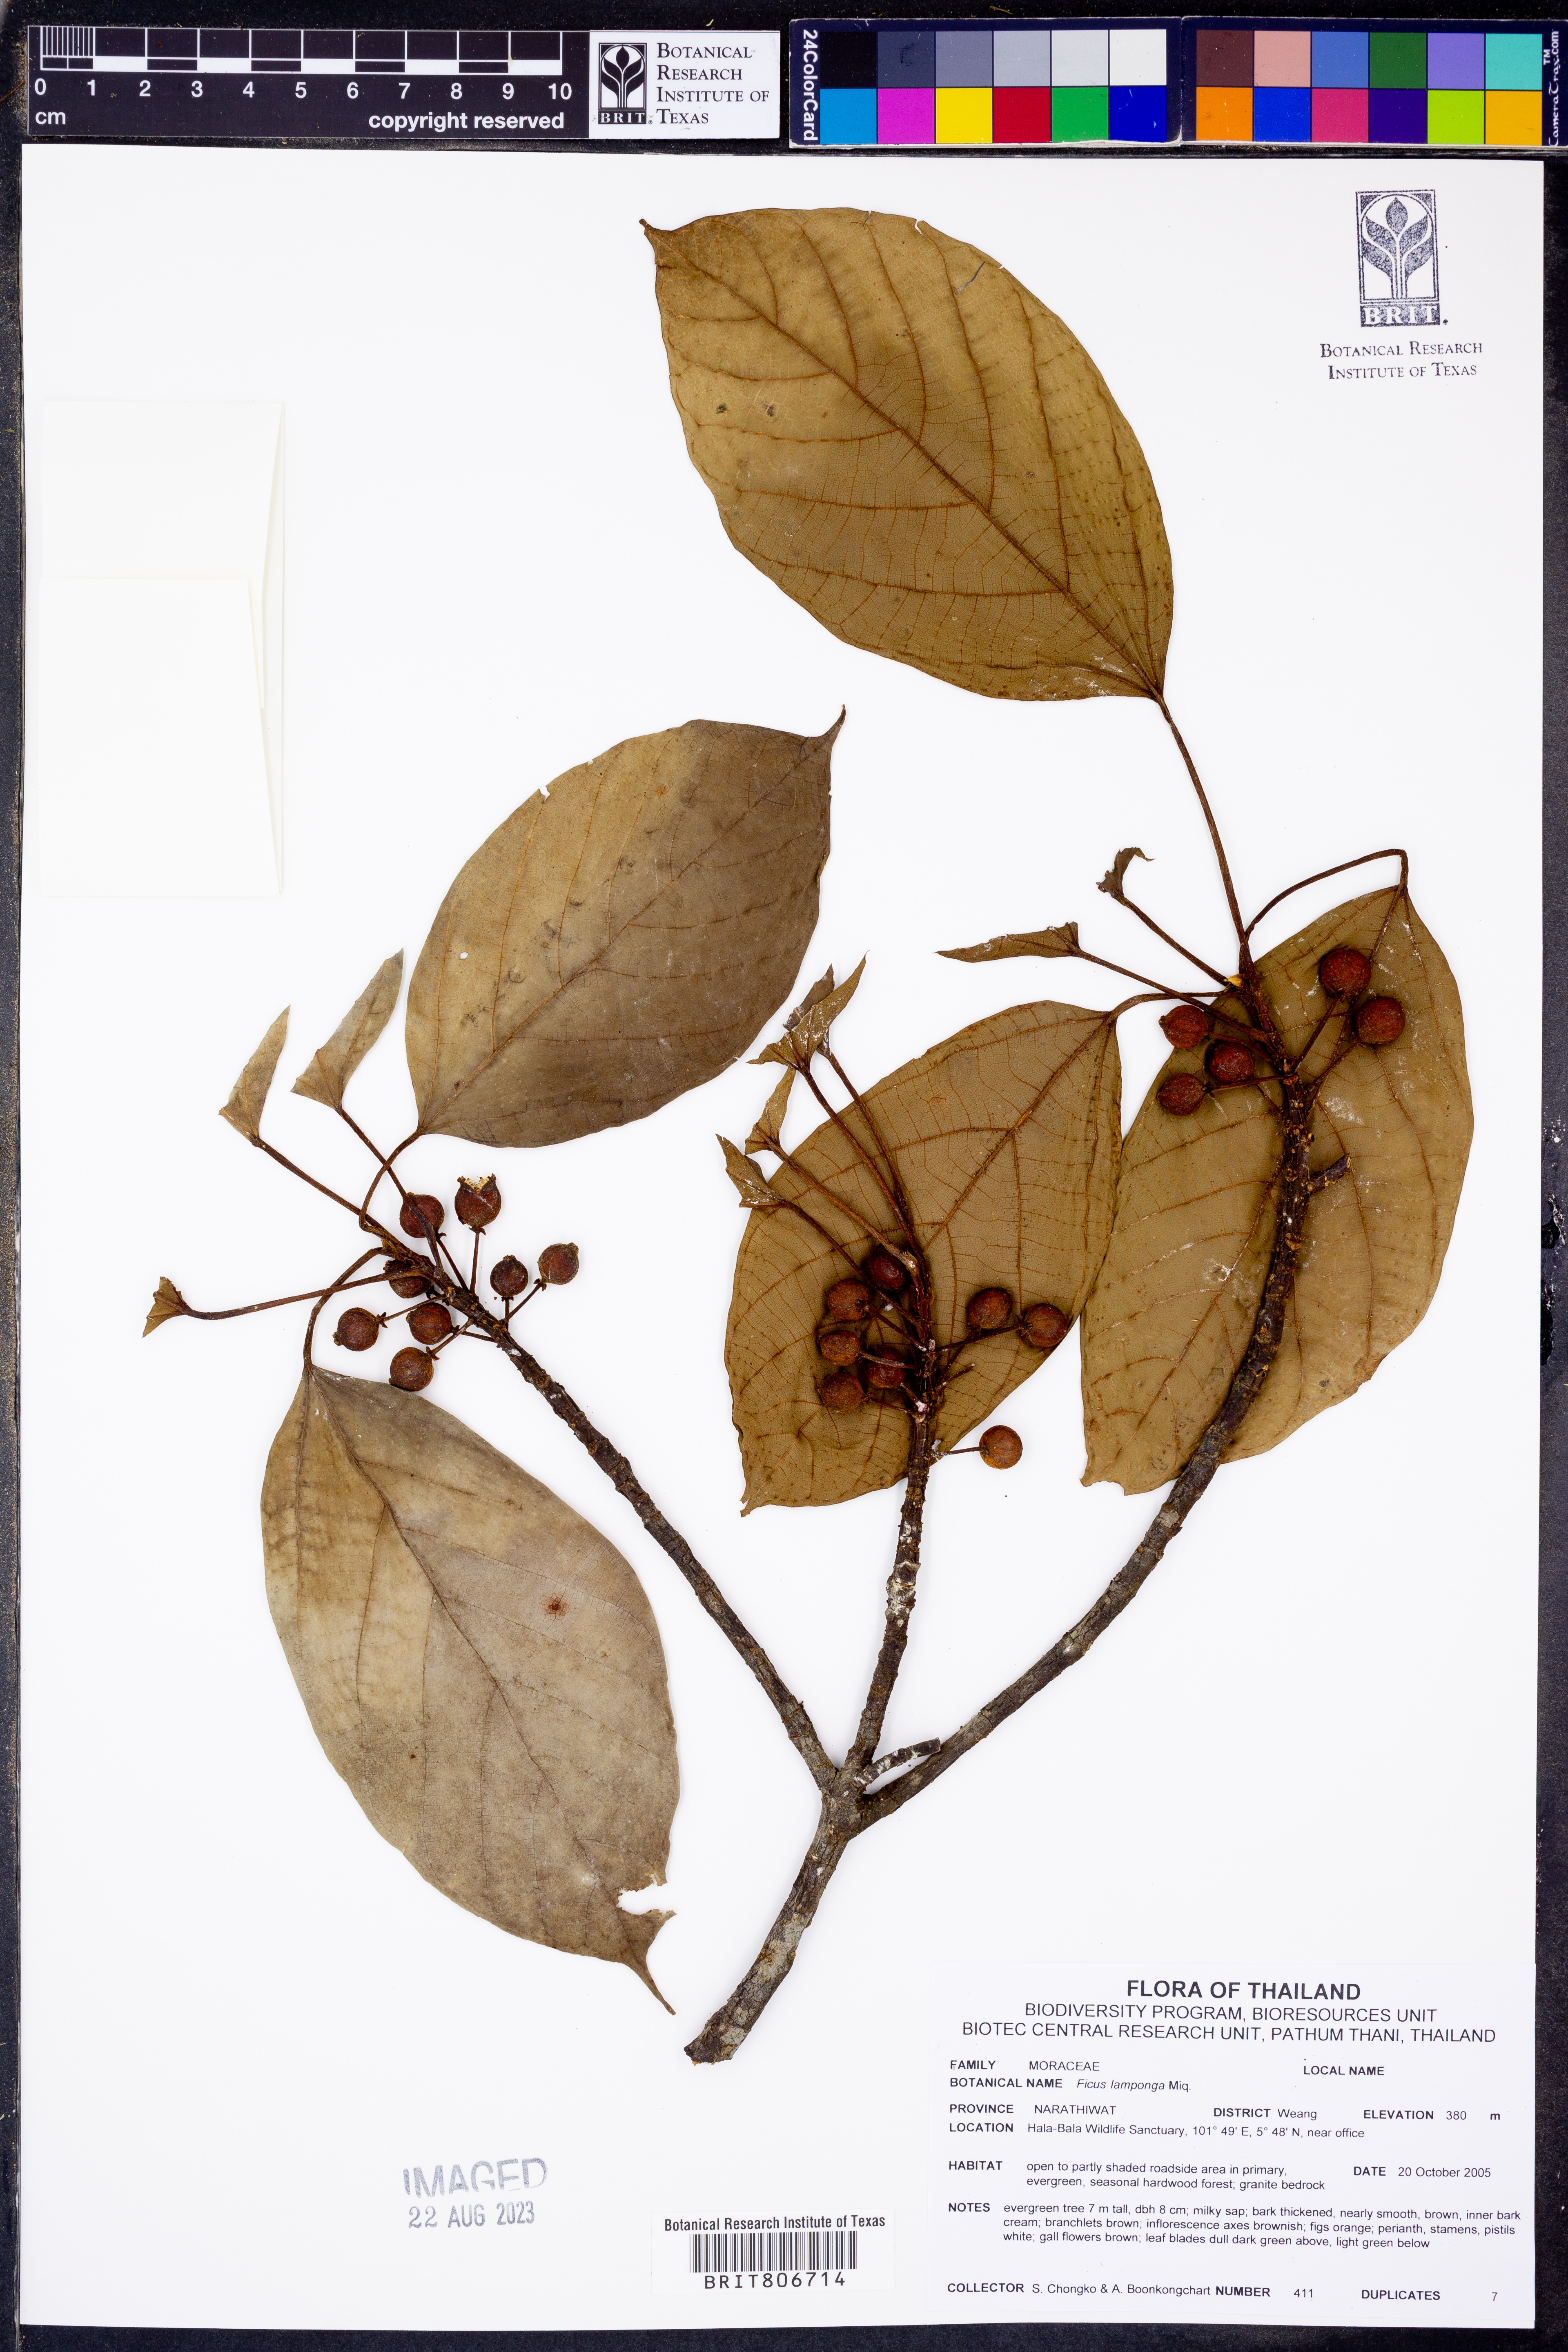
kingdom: Plantae
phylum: Tracheophyta
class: Magnoliopsida
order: Rosales
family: Moraceae
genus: Ficus
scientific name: Ficus lamponga
